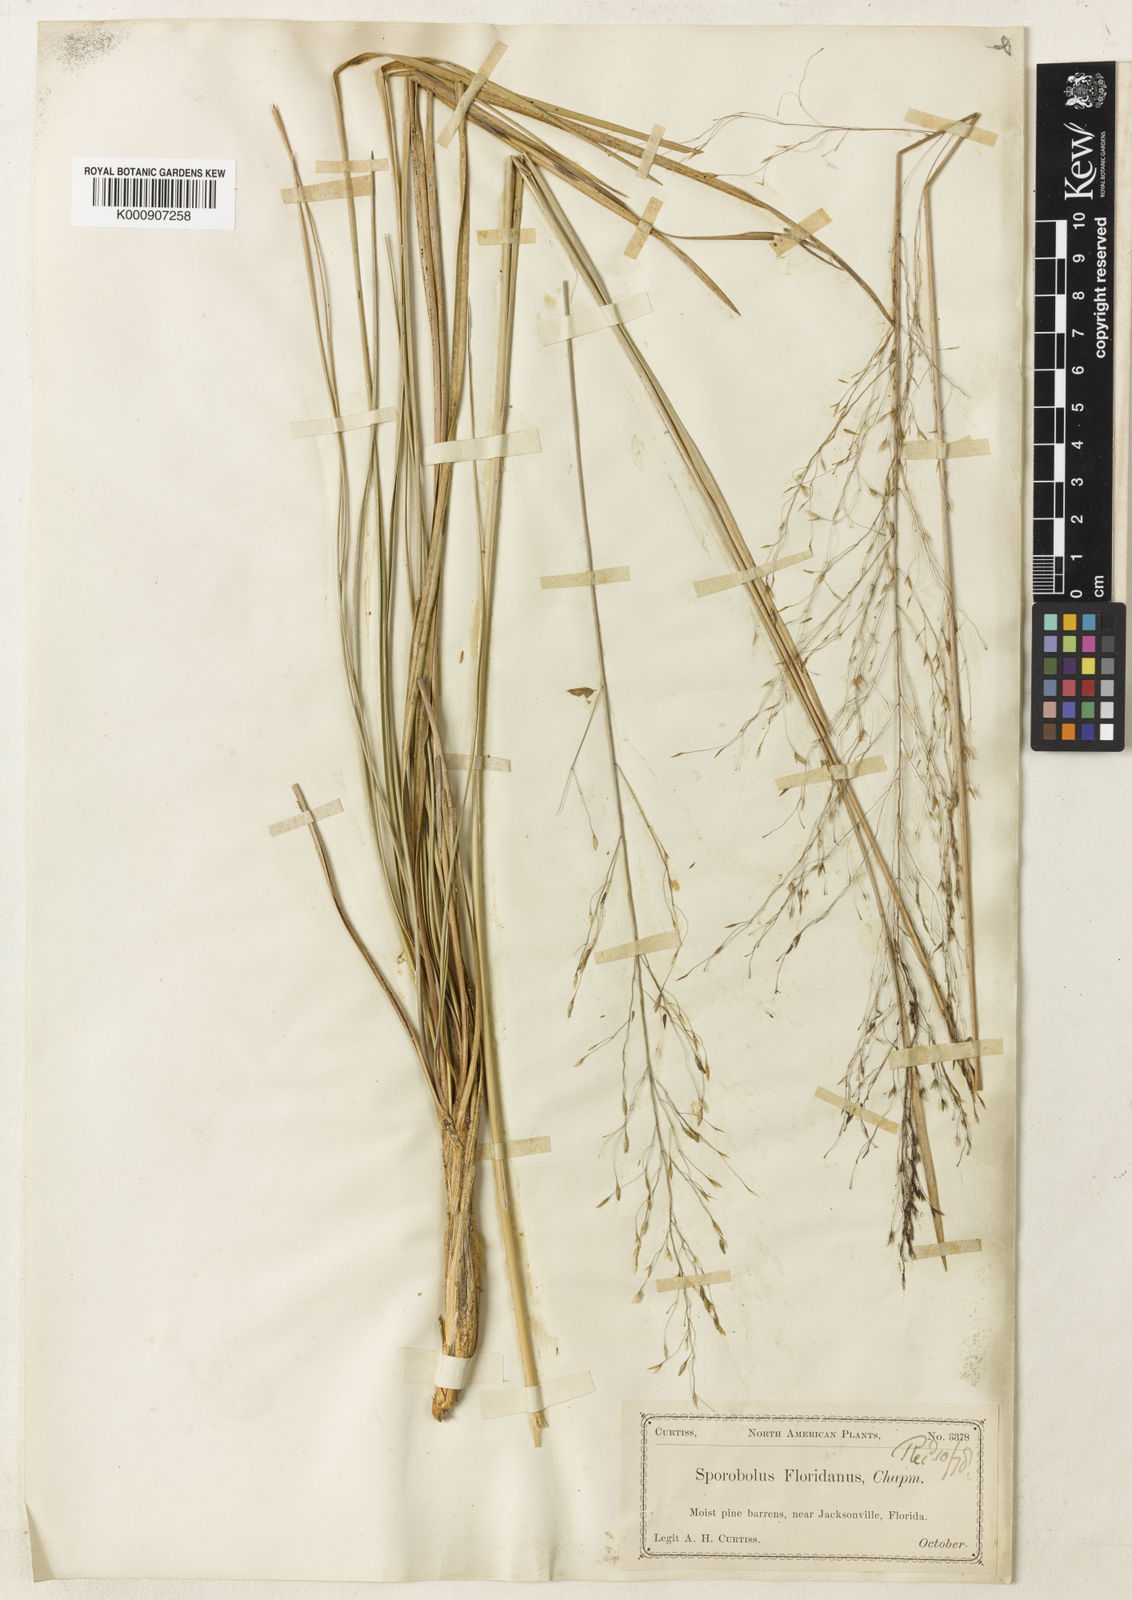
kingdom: Plantae
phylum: Tracheophyta
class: Liliopsida
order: Poales
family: Poaceae
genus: Sporobolus
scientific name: Sporobolus
